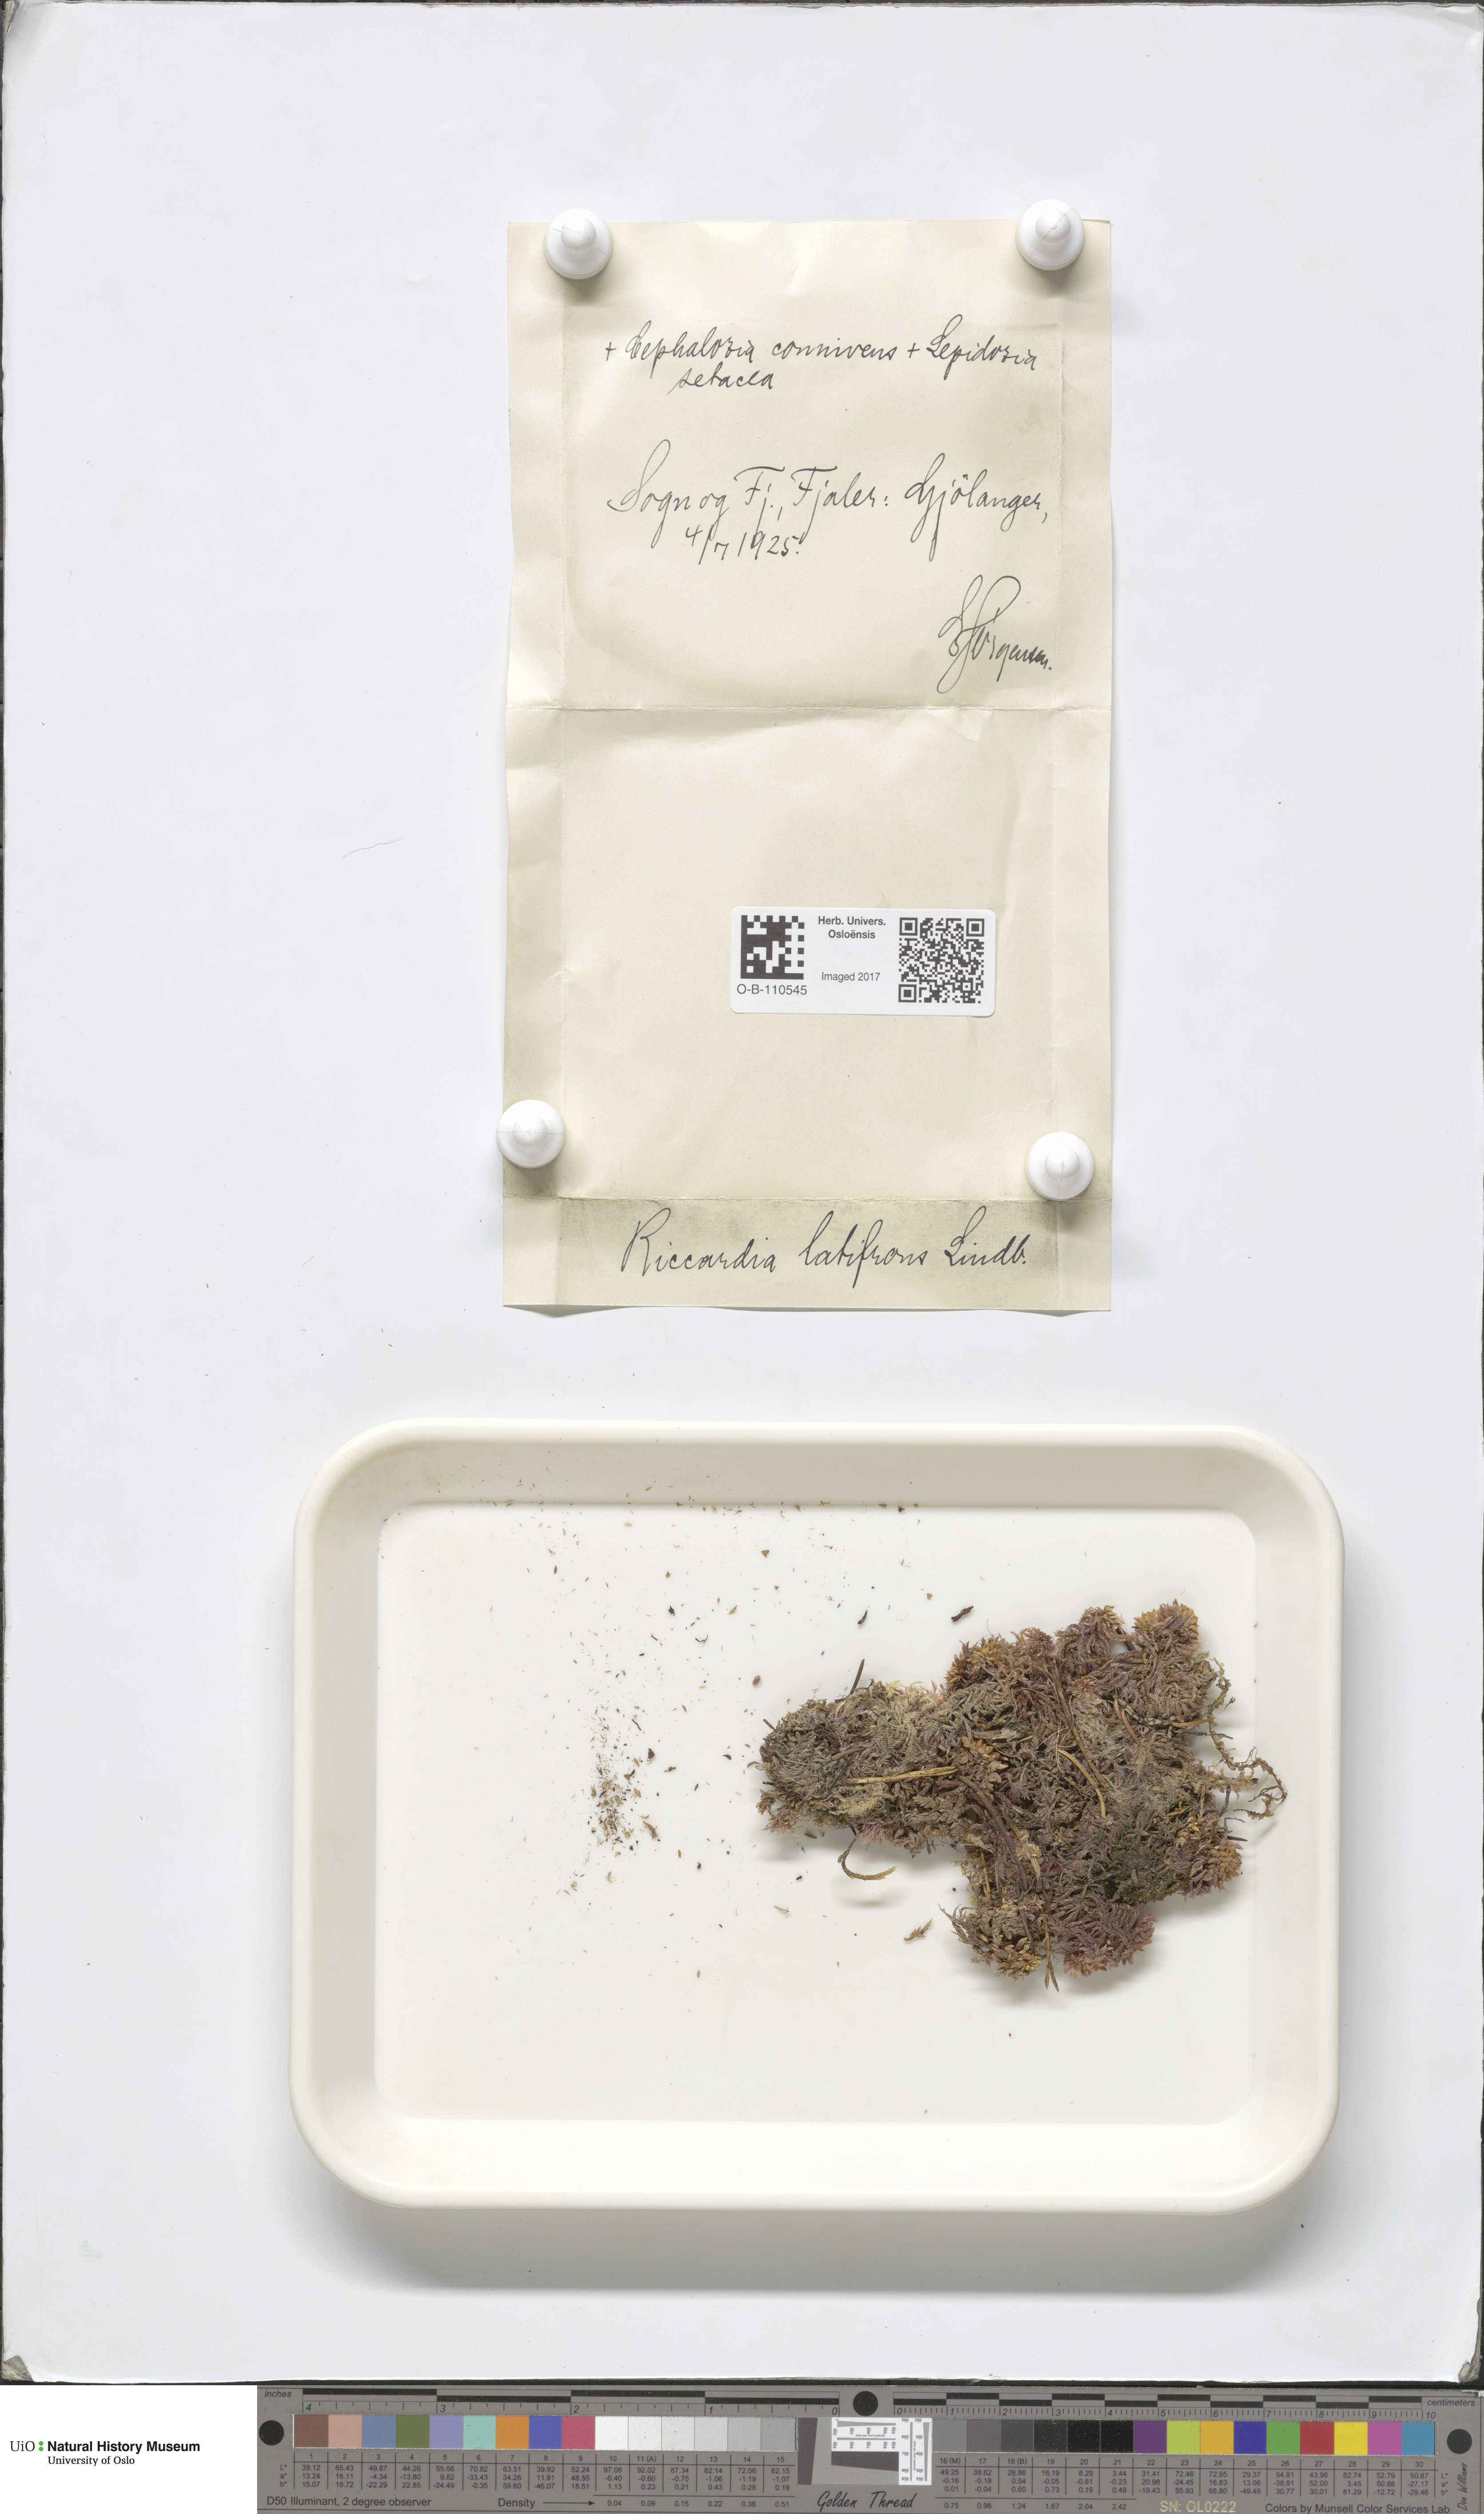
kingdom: Plantae
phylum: Marchantiophyta
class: Jungermanniopsida
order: Metzgeriales
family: Aneuraceae
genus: Riccardia
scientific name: Riccardia latifrons
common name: Bog germanderwort
